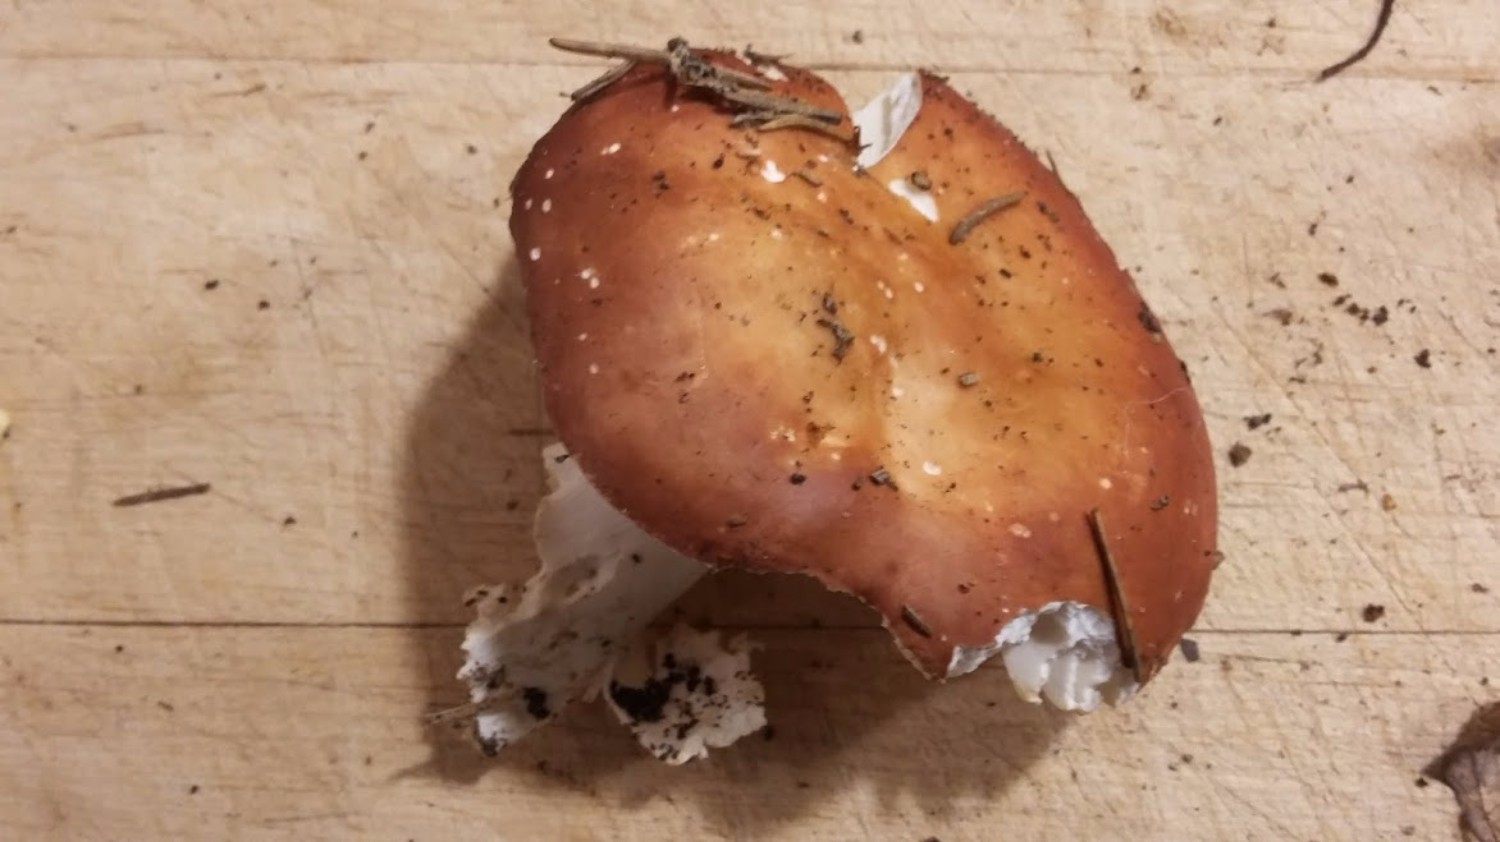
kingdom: Fungi
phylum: Basidiomycota
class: Agaricomycetes
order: Russulales
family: Russulaceae
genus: Russula
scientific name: Russula velenovskyi
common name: orangerød skørhat
